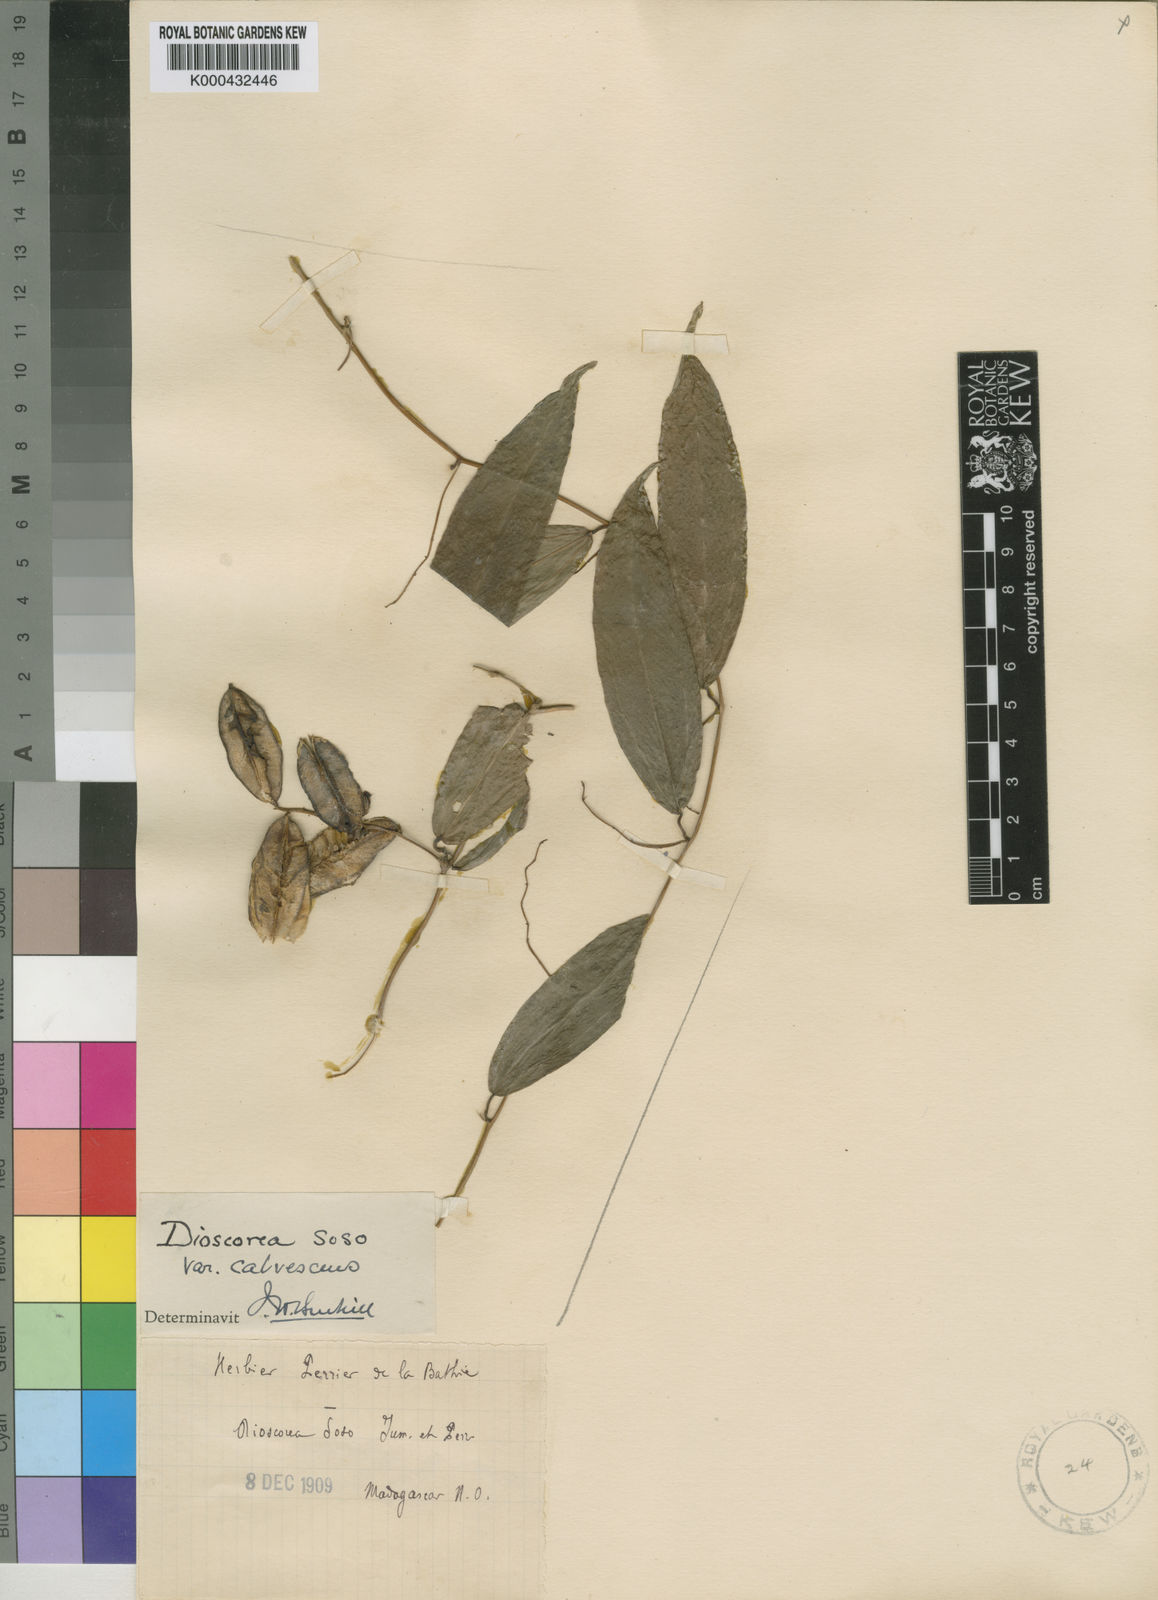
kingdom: Plantae
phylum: Tracheophyta
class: Liliopsida
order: Dioscoreales
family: Dioscoreaceae
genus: Dioscorea
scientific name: Dioscorea soso
